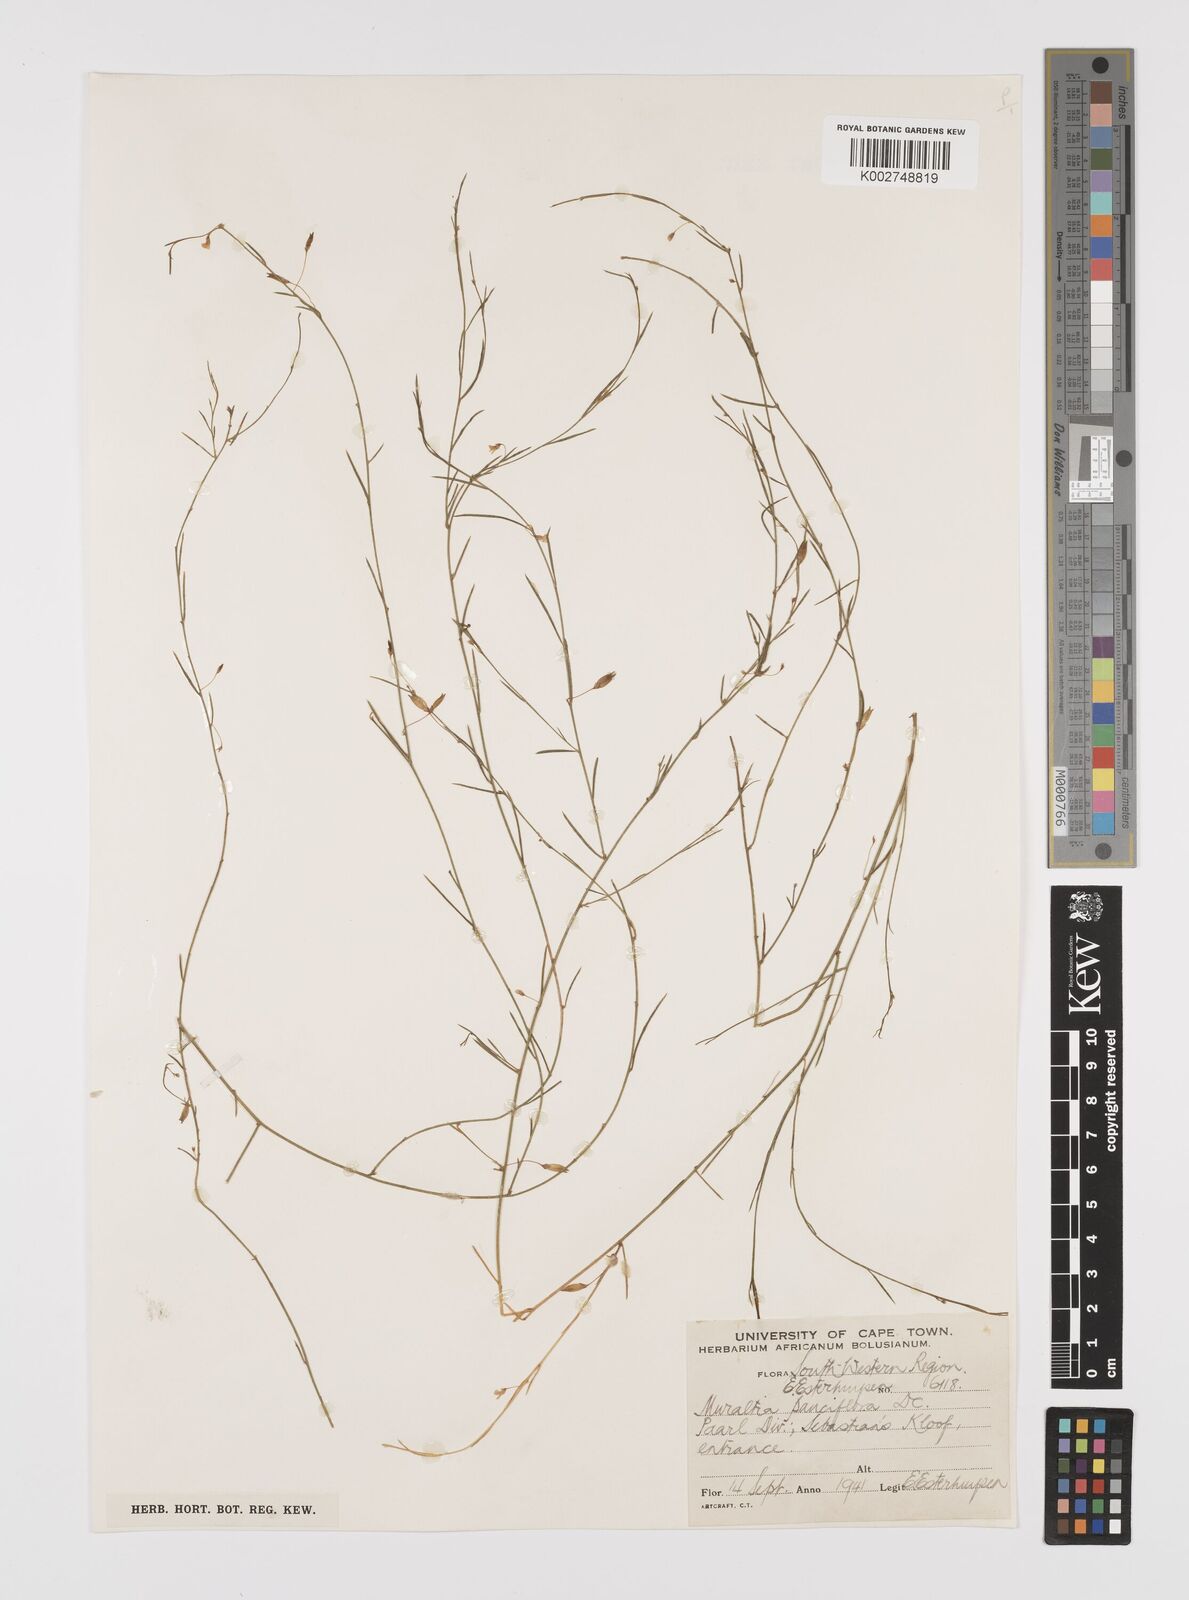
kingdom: Plantae
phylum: Tracheophyta
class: Magnoliopsida
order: Fabales
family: Polygalaceae
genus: Muraltia
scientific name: Muraltia pauciflora
